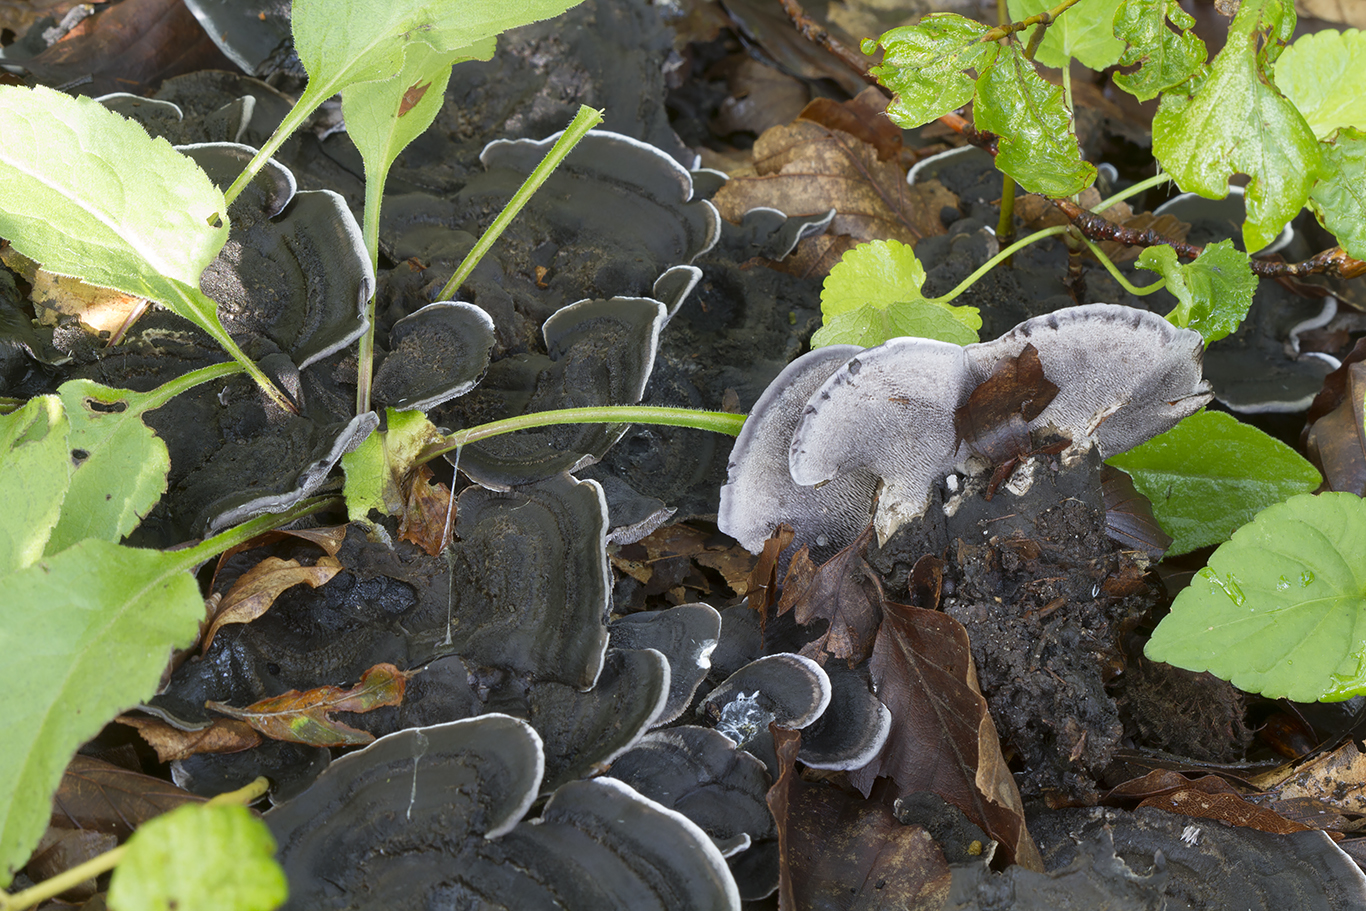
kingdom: Fungi
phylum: Basidiomycota
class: Agaricomycetes
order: Thelephorales
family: Thelephoraceae
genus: Phellodon
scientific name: Phellodon
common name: mørk duftpigsvamp
